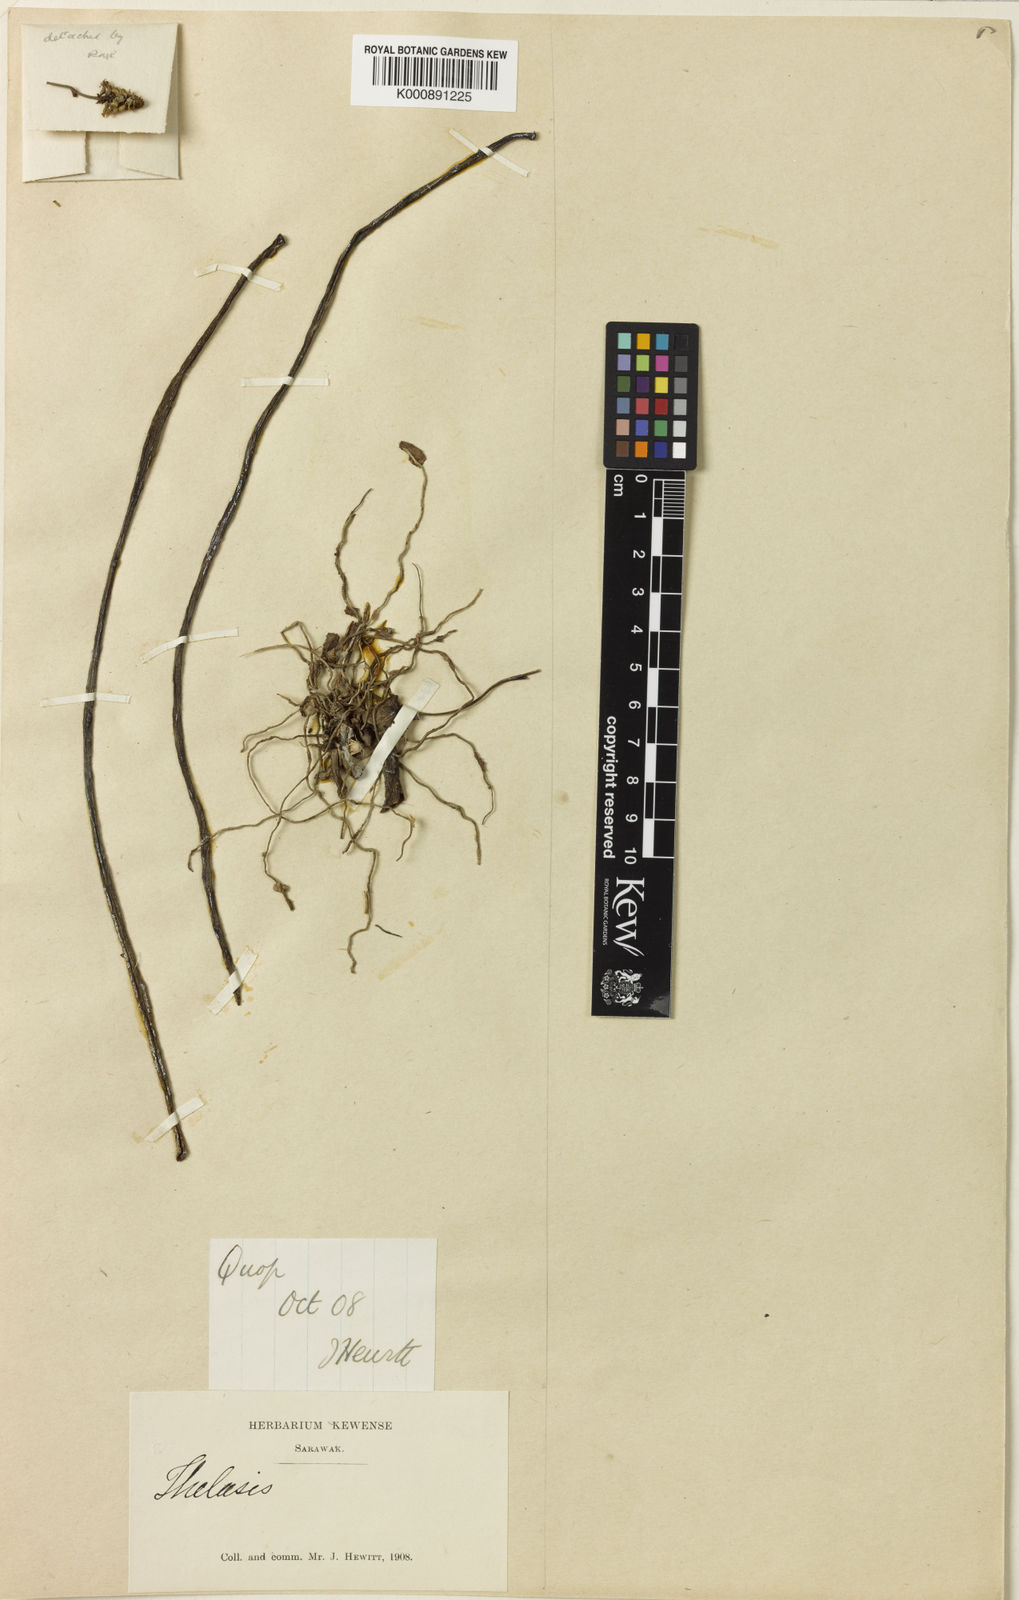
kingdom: Plantae
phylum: Tracheophyta
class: Liliopsida
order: Asparagales
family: Orchidaceae
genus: Thelasis
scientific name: Thelasis cebolleta
